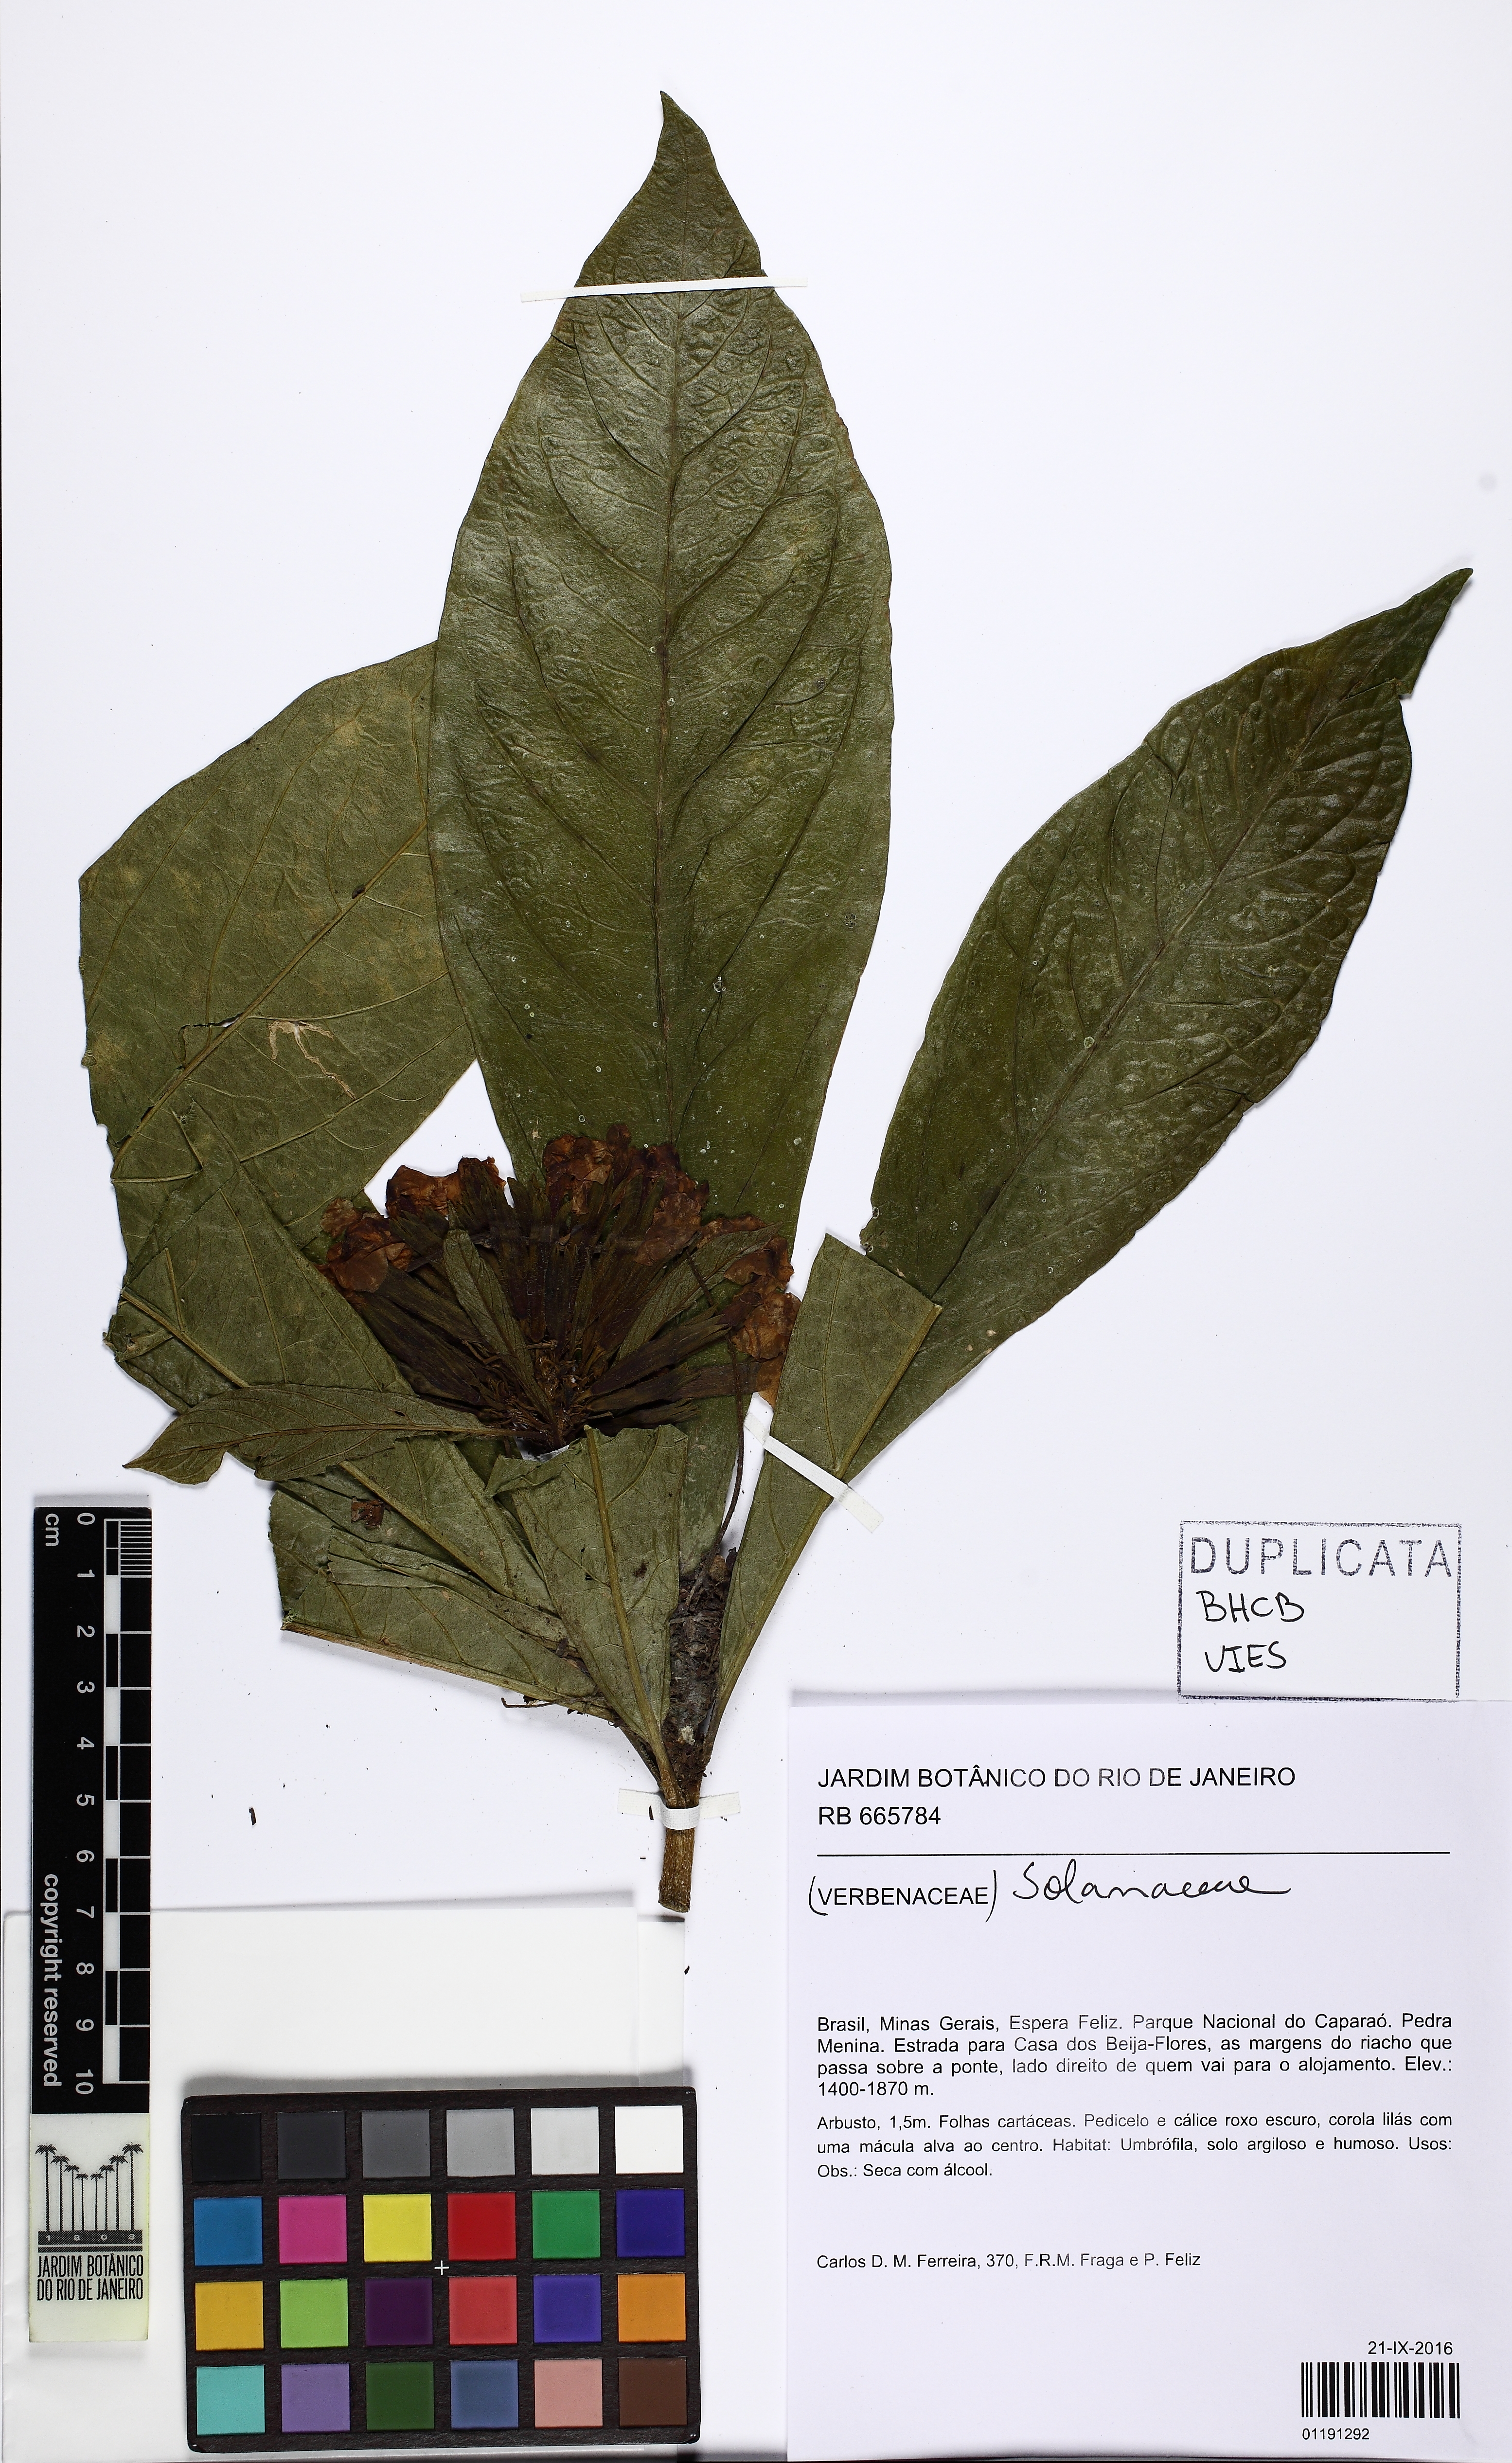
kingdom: Plantae
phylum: Tracheophyta
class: Magnoliopsida
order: Solanales
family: Solanaceae
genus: Brunfelsia
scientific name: Brunfelsia hydrangeiformis
